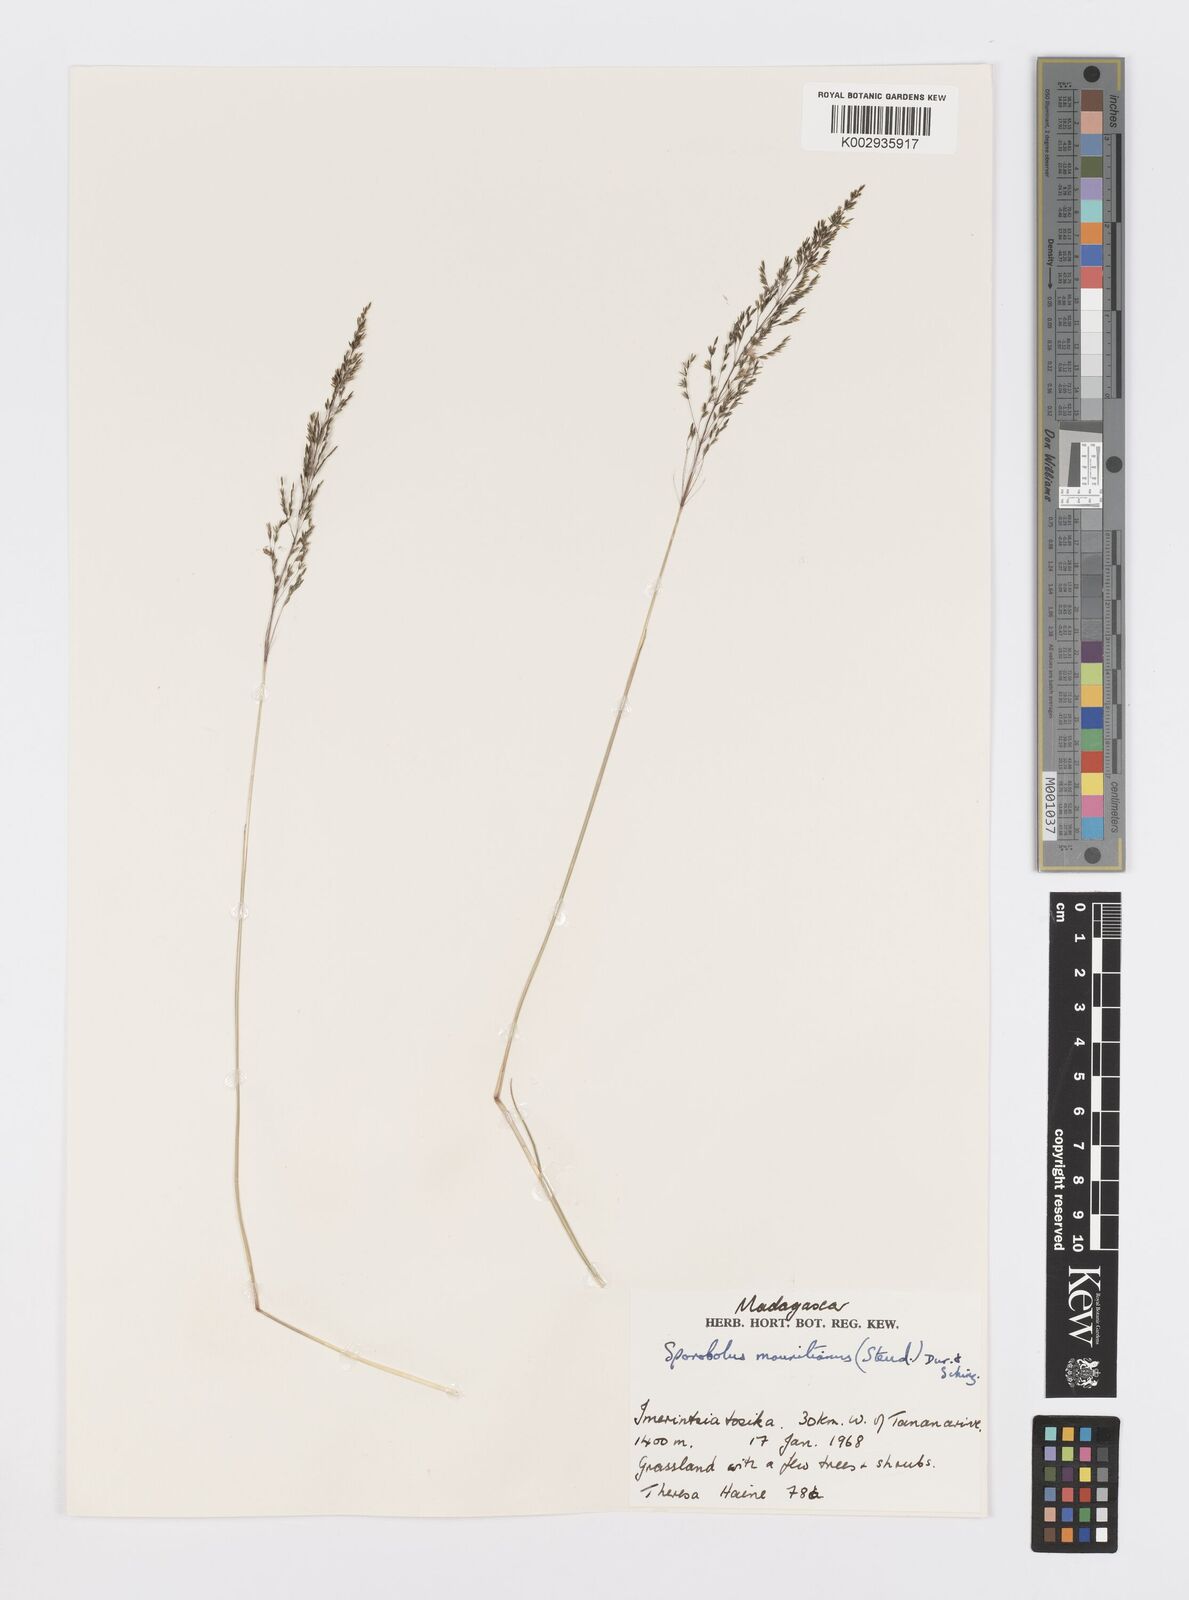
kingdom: Plantae
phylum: Tracheophyta
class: Liliopsida
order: Poales
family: Poaceae
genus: Sporobolus
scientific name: Sporobolus subulatus
